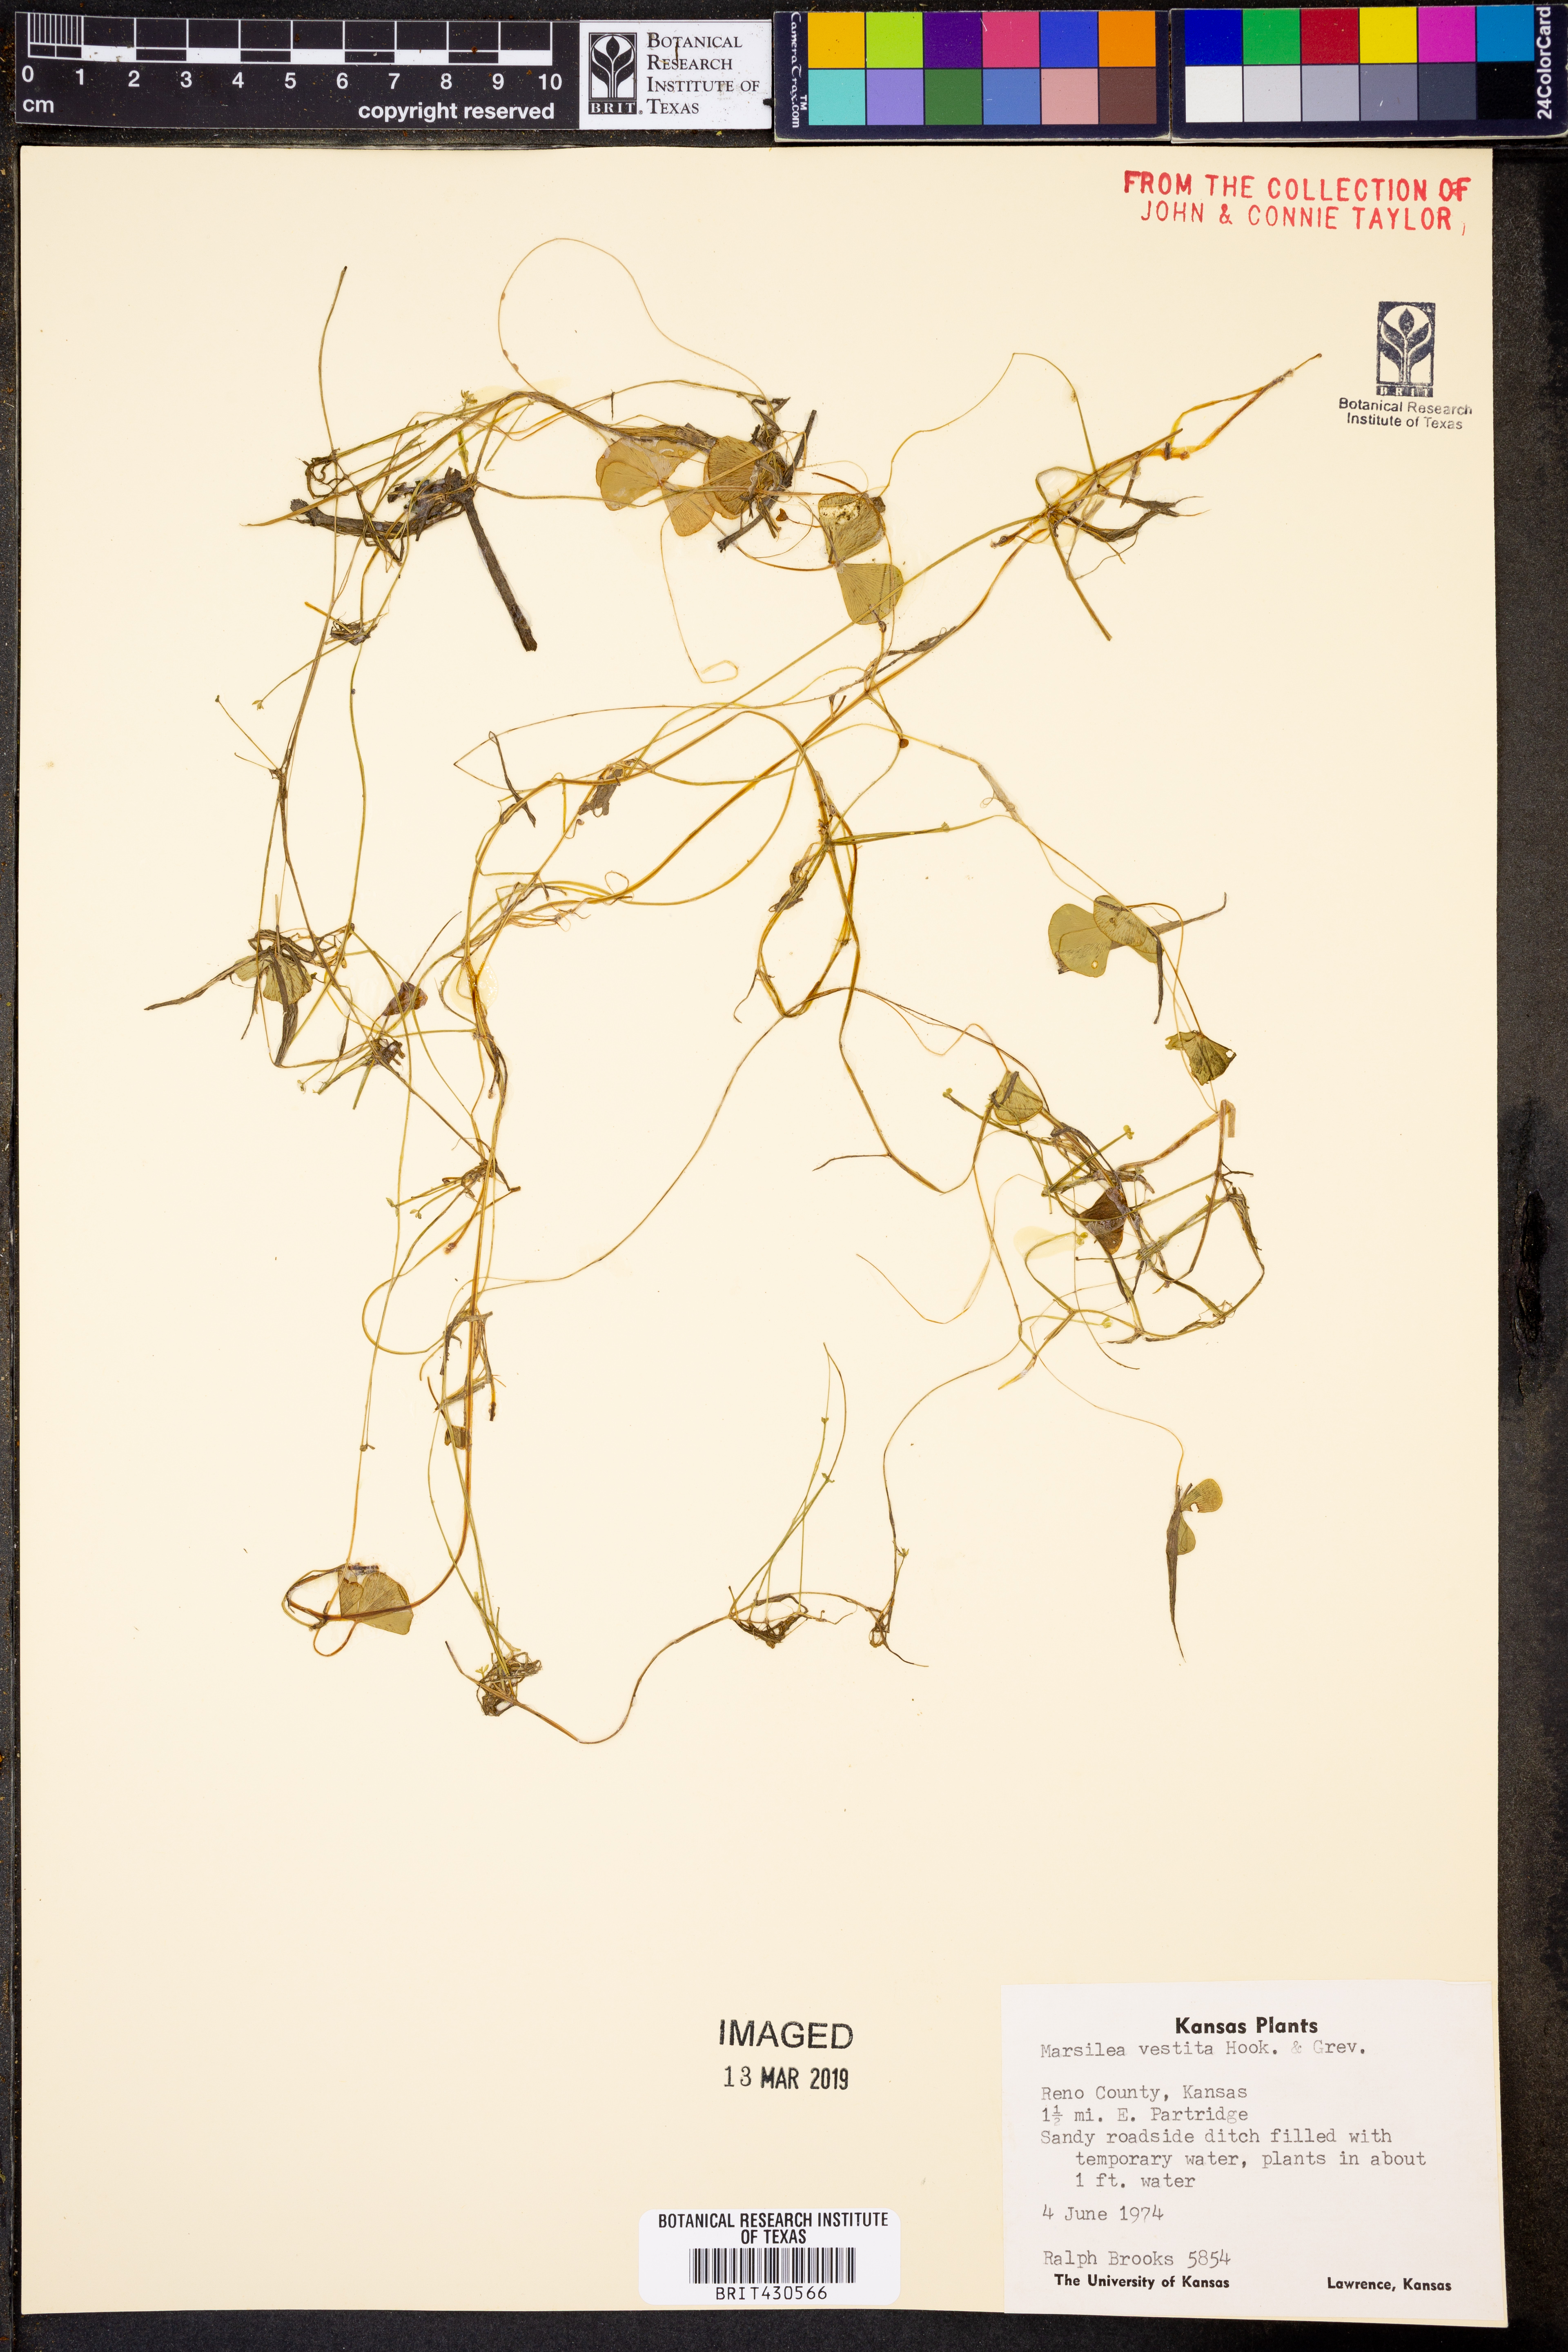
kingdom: Plantae
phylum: Tracheophyta
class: Polypodiopsida
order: Salviniales
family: Marsileaceae
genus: Marsilea
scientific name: Marsilea vestita
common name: Hooked-pepperwort
